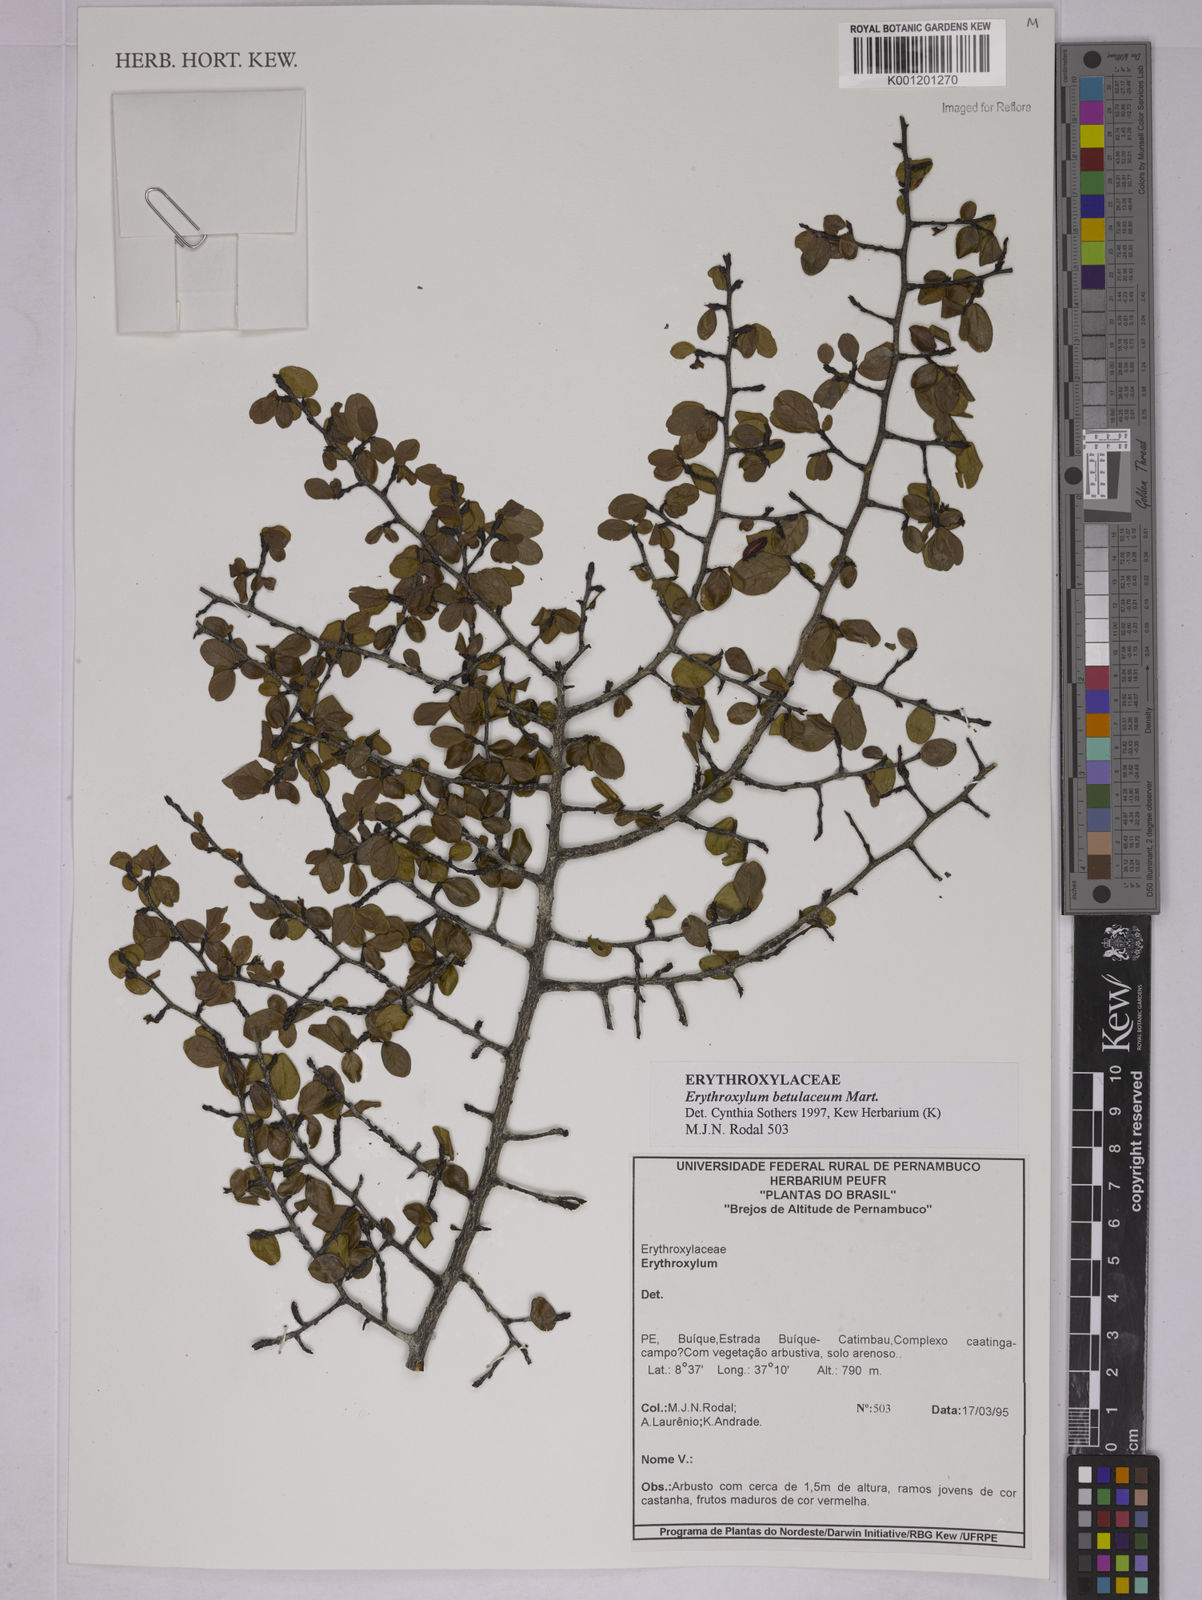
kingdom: Plantae
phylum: Tracheophyta
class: Magnoliopsida
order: Malpighiales
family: Erythroxylaceae
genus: Erythroxylum
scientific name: Erythroxylum betulaceum
